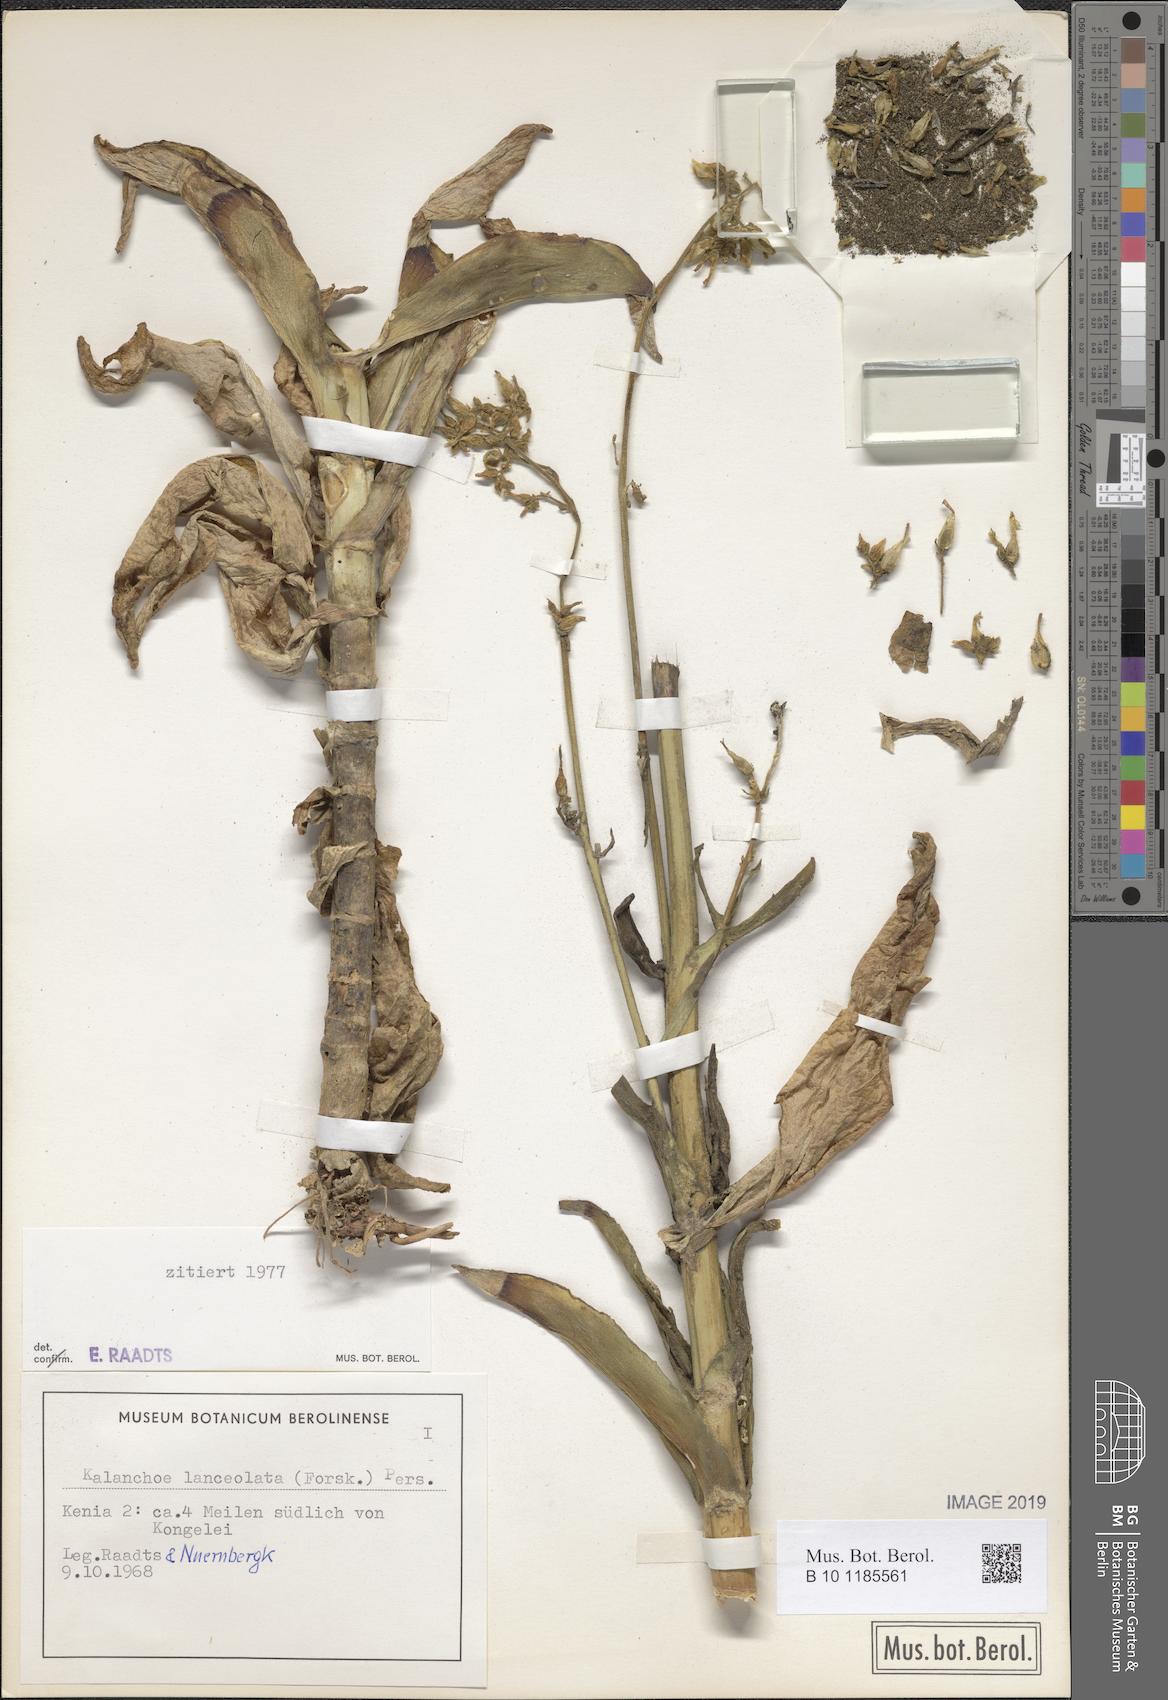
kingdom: Plantae
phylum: Tracheophyta
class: Magnoliopsida
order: Saxifragales
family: Crassulaceae
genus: Kalanchoe
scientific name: Kalanchoe lanceolata
